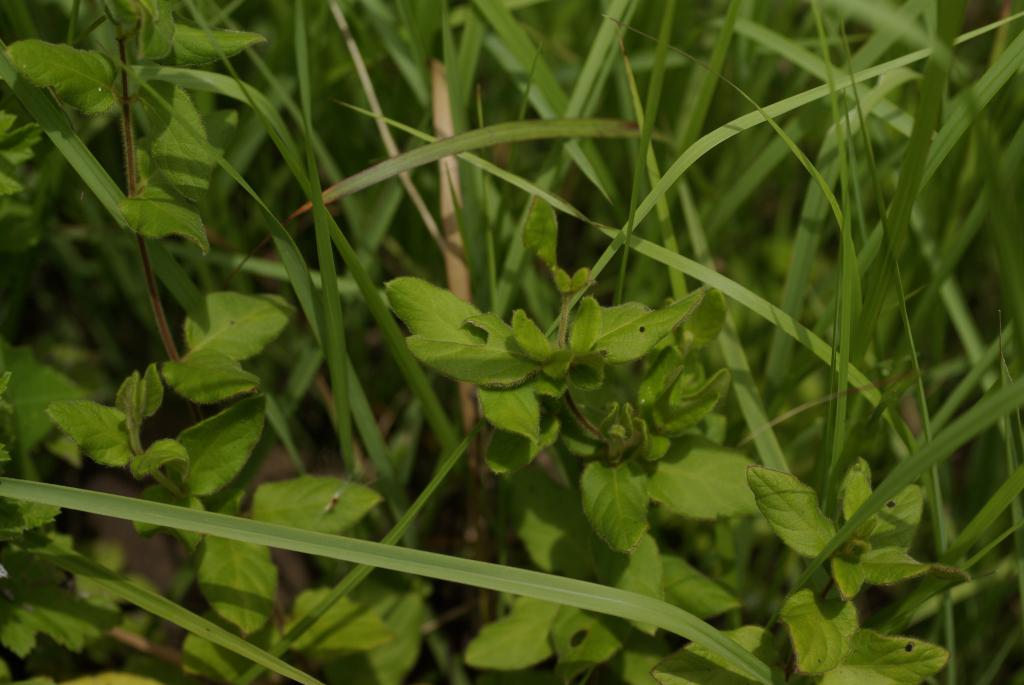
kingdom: Plantae
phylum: Tracheophyta
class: Magnoliopsida
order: Dipsacales
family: Caprifoliaceae
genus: Lonicera
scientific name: Lonicera japonica
